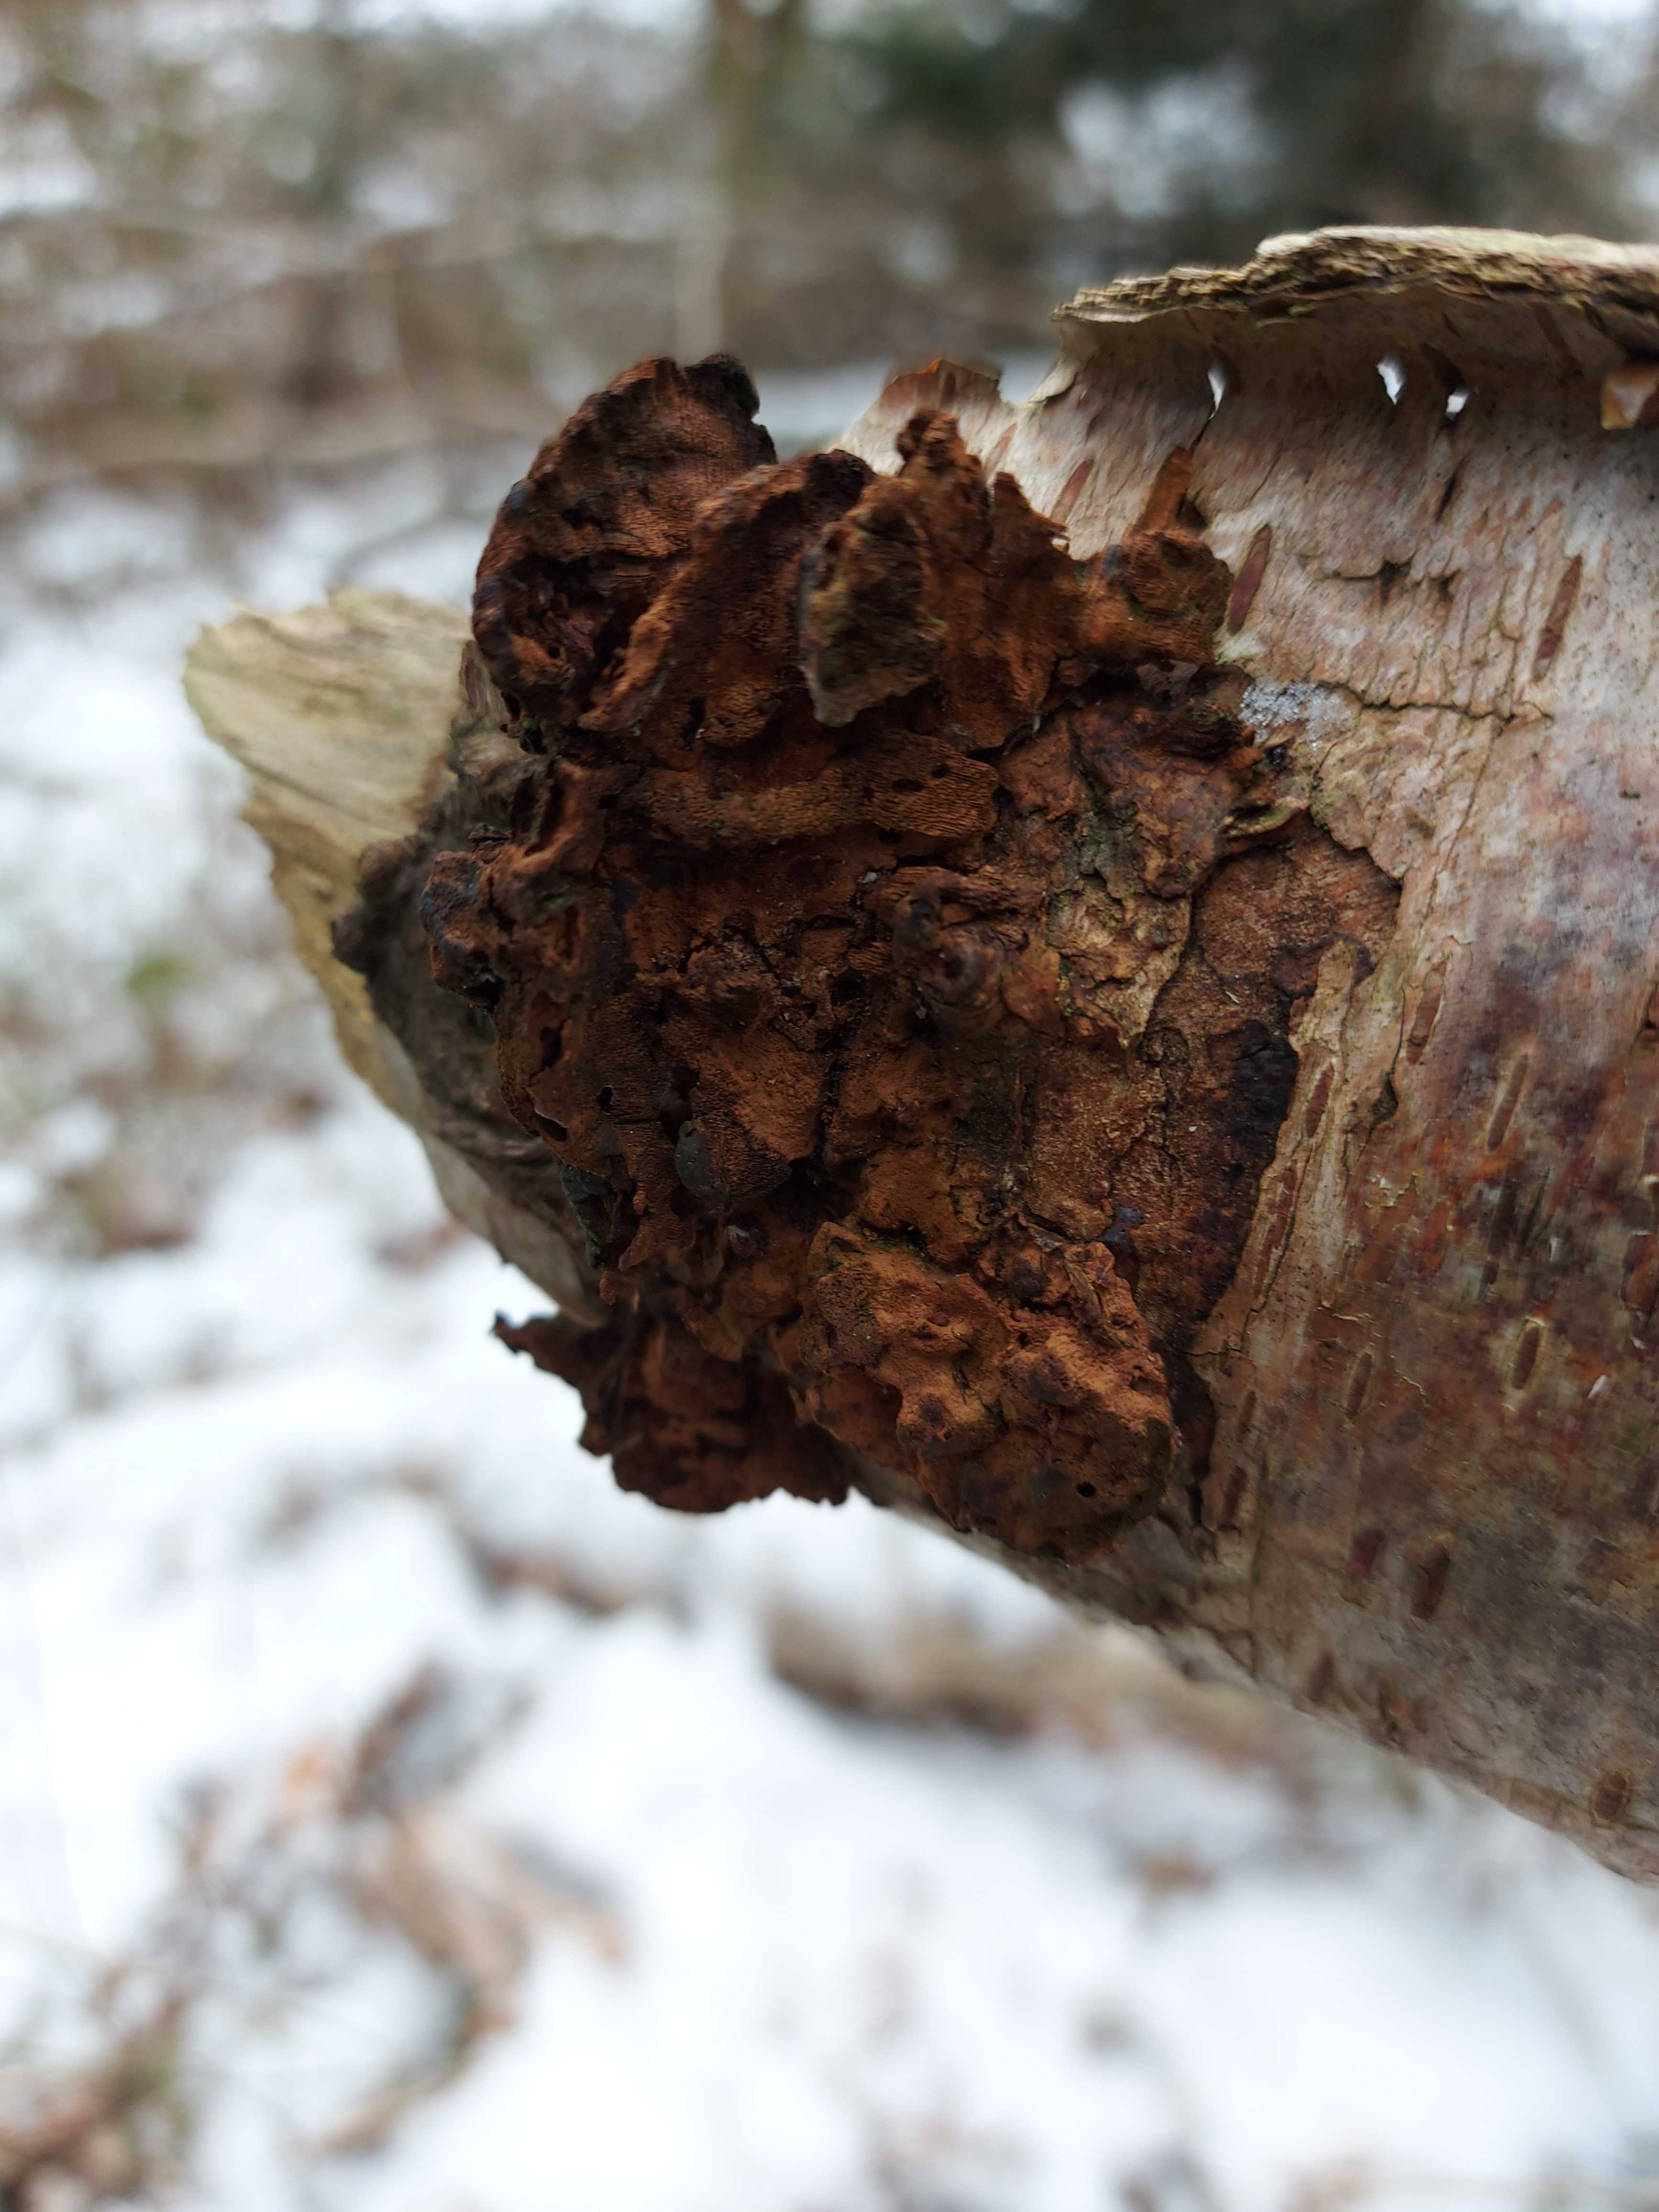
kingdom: Fungi
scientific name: Fungi
